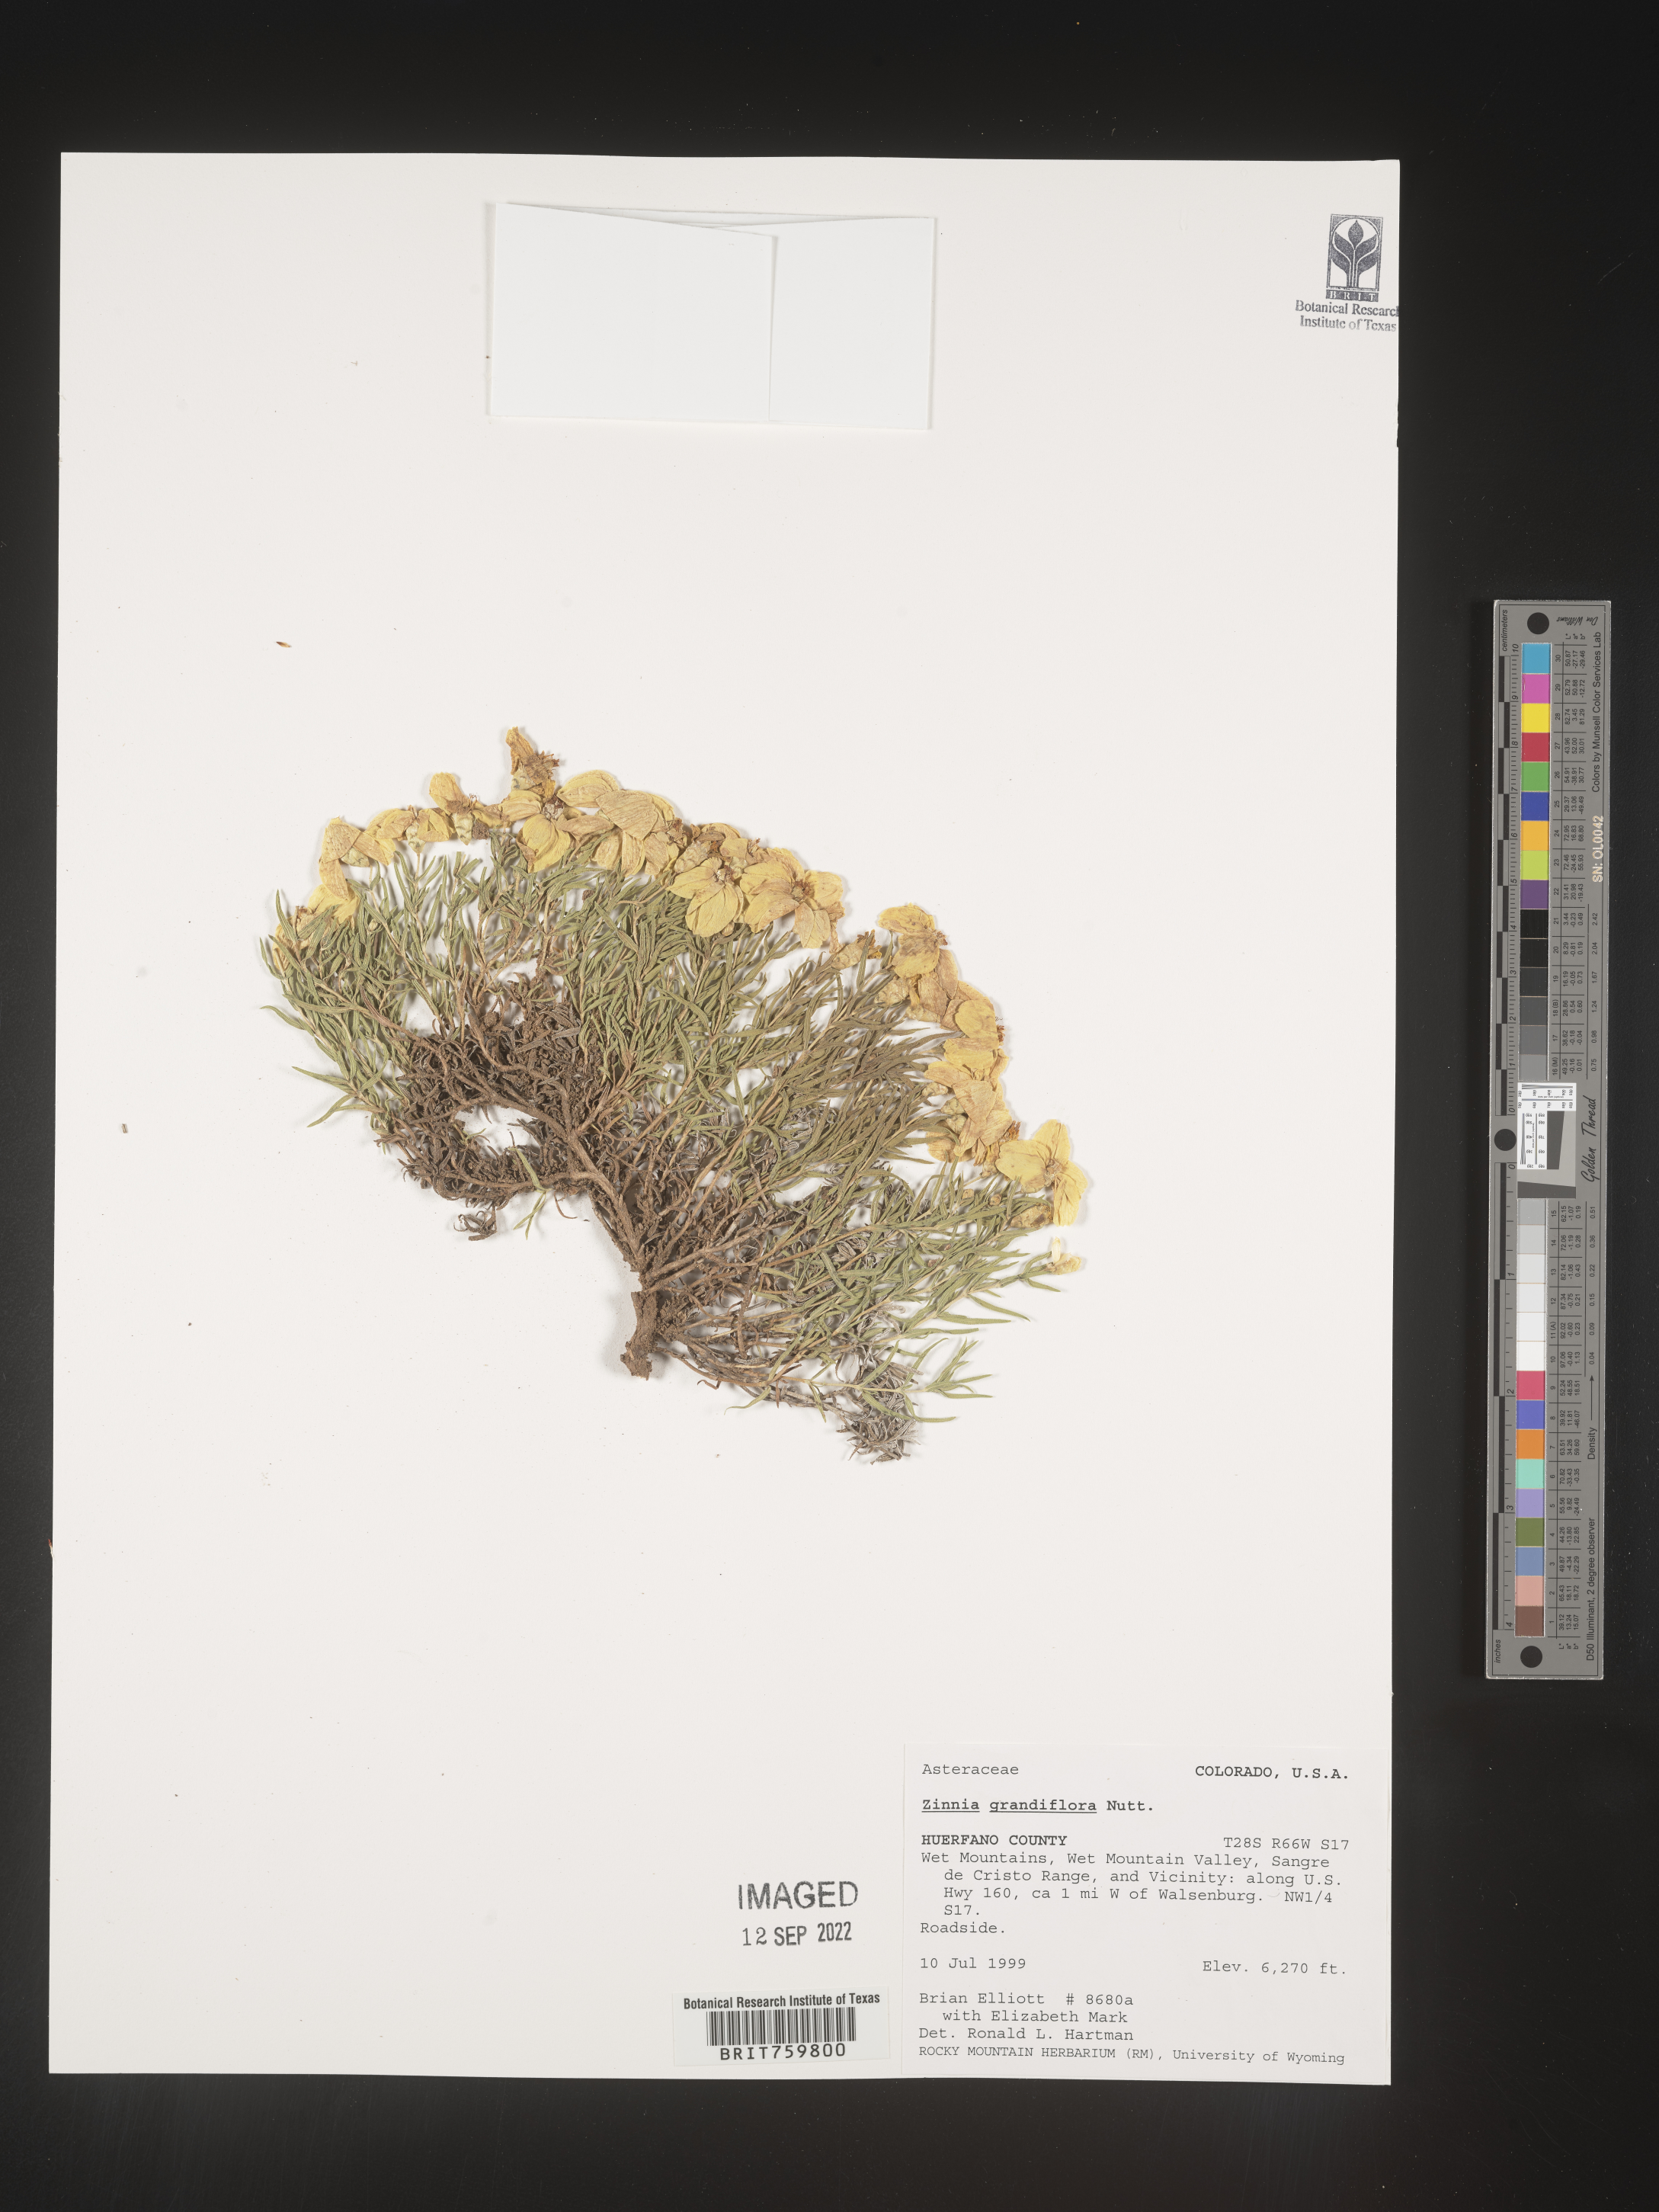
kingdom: Plantae
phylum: Tracheophyta
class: Magnoliopsida
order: Asterales
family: Asteraceae
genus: Zinnia
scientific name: Zinnia grandiflora
